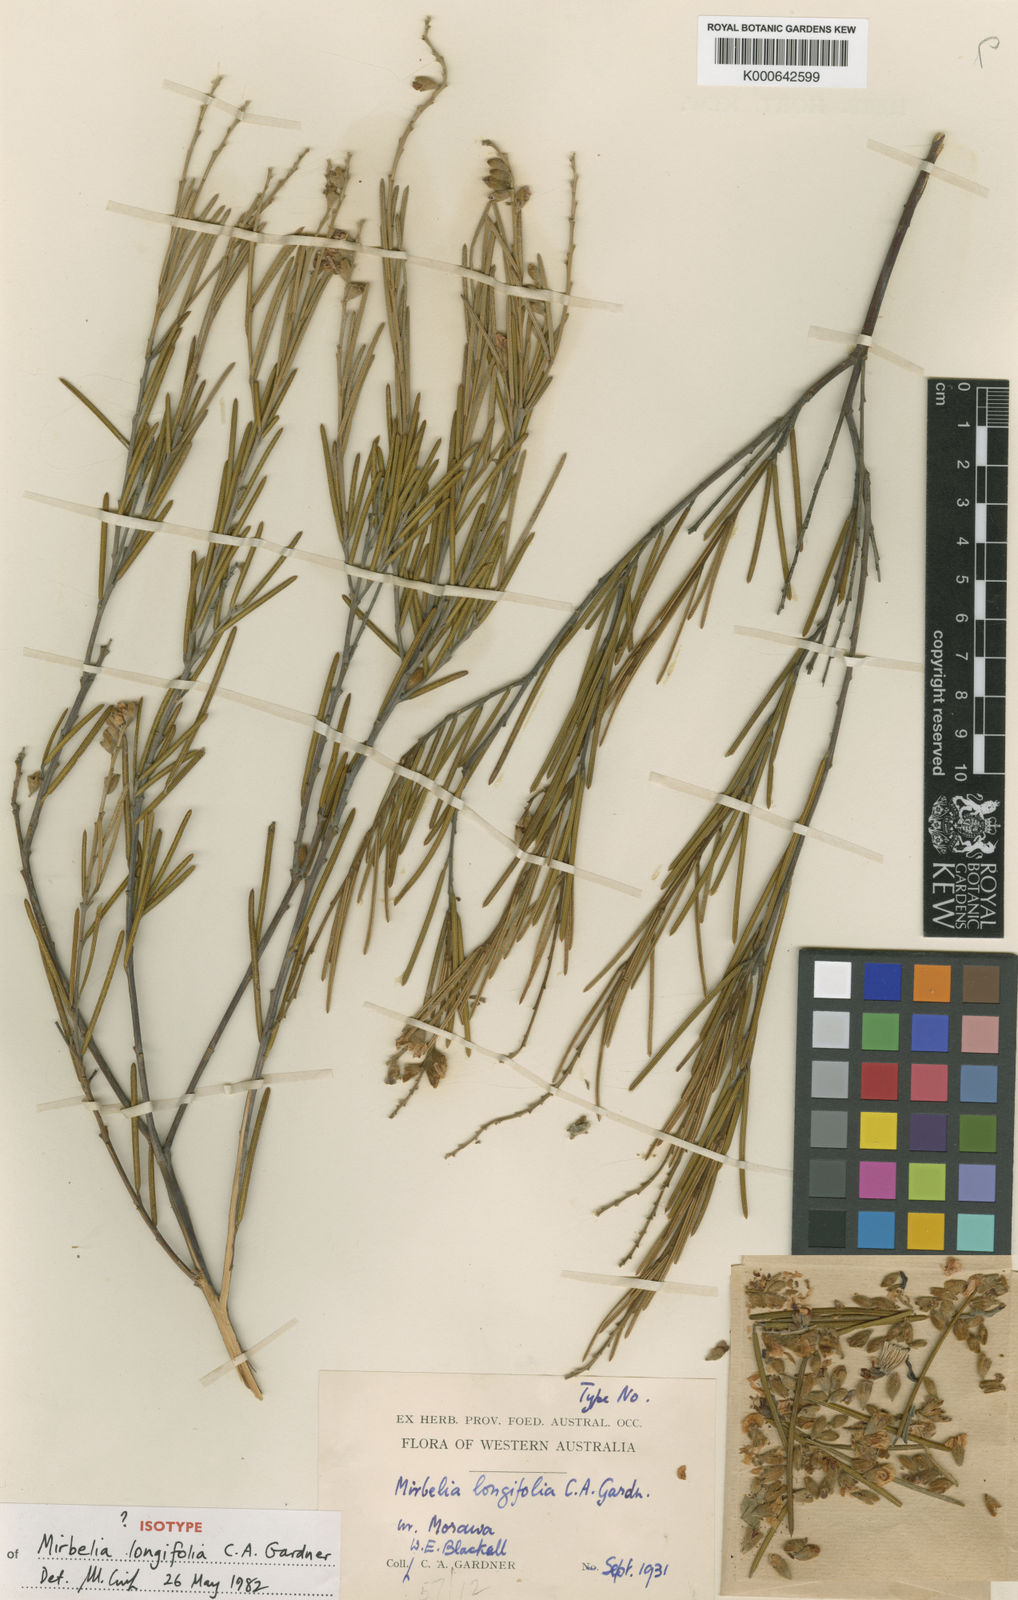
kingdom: Plantae
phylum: Tracheophyta
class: Magnoliopsida
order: Fabales
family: Fabaceae
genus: Mirbelia
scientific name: Mirbelia longifolia
